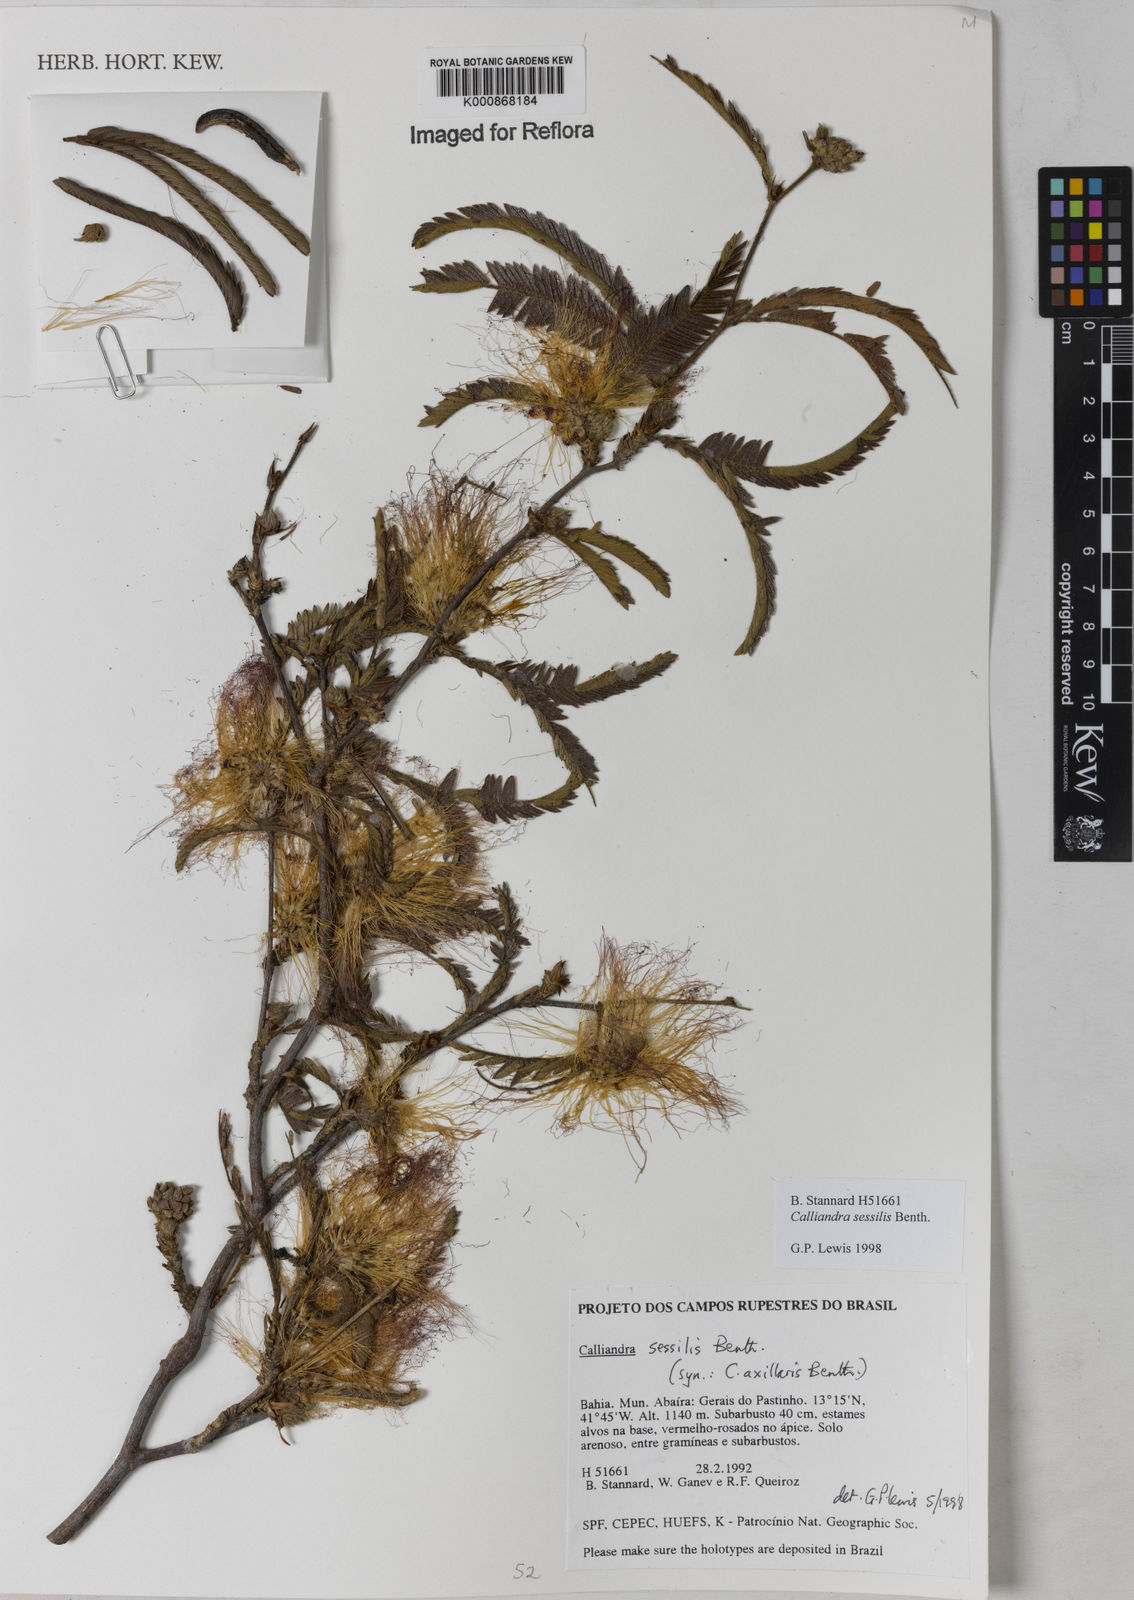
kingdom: Plantae
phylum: Tracheophyta
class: Magnoliopsida
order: Fabales
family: Fabaceae
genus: Calliandra
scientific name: Calliandra sessilis
